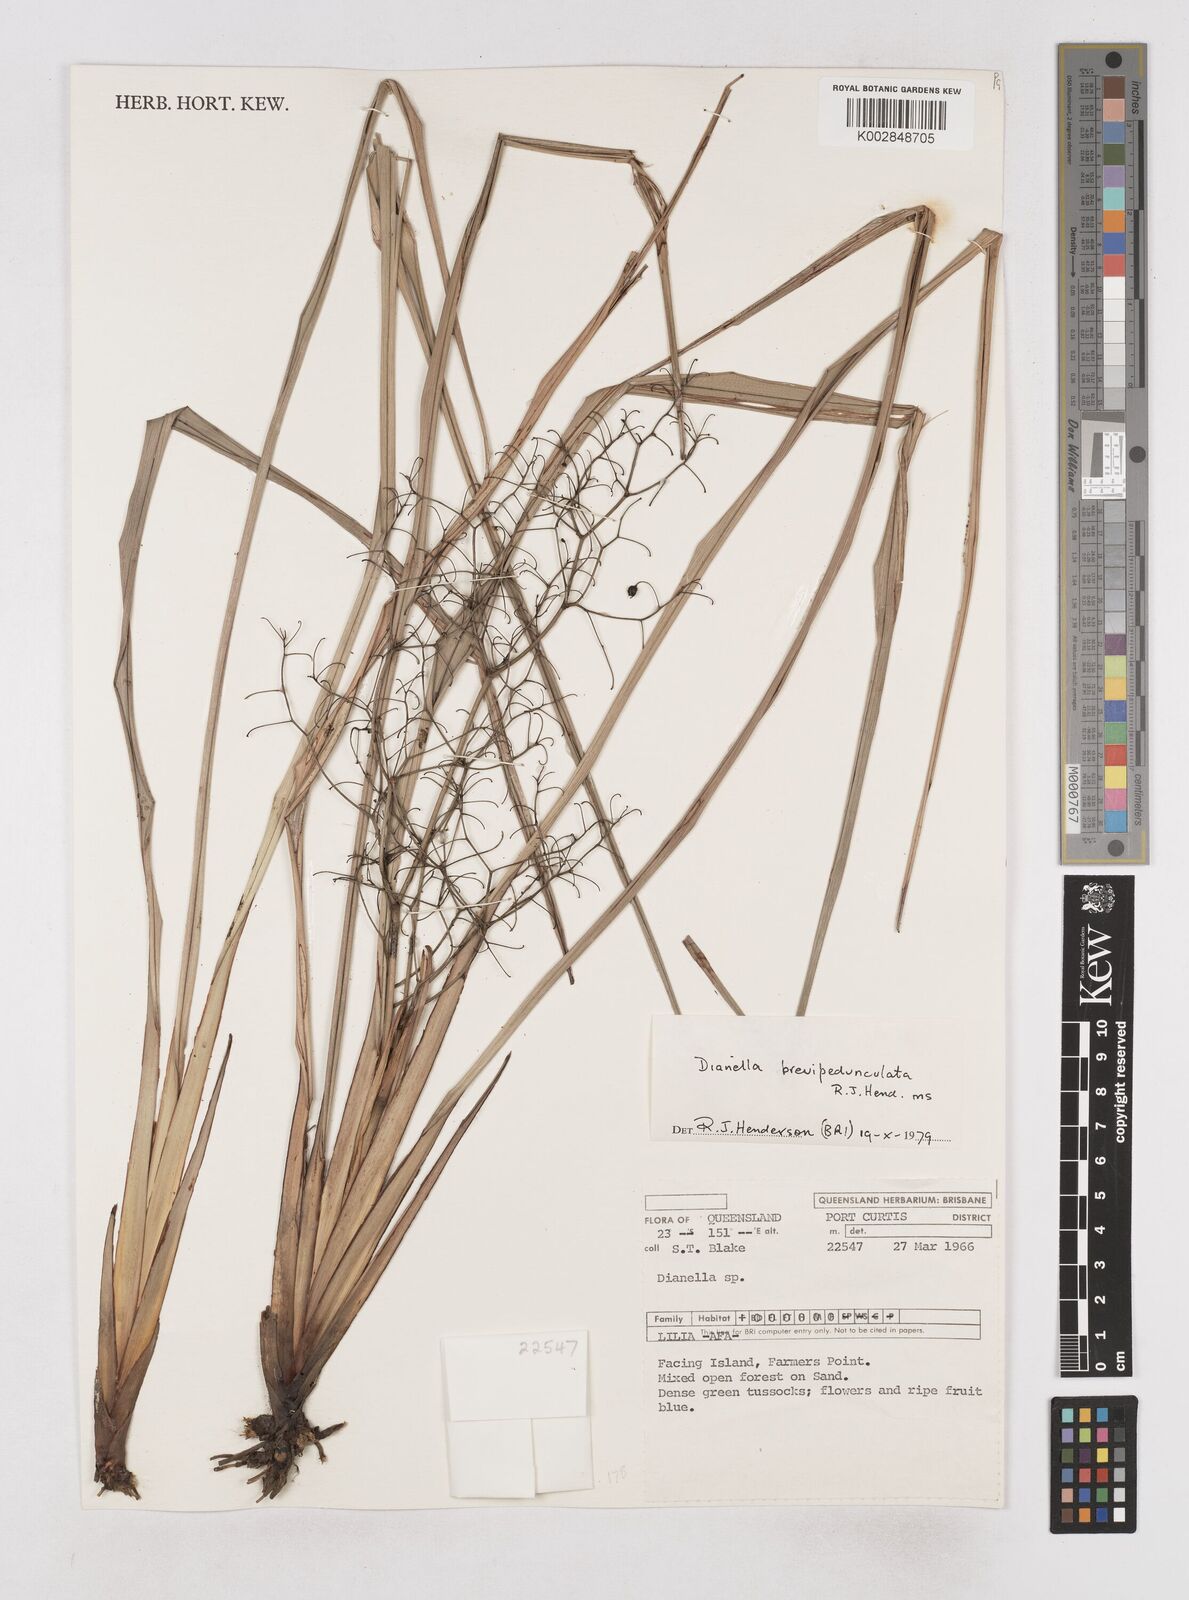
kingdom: Plantae
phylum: Tracheophyta
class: Liliopsida
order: Asparagales
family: Asphodelaceae
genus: Dianella
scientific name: Dianella brevipedunculata
